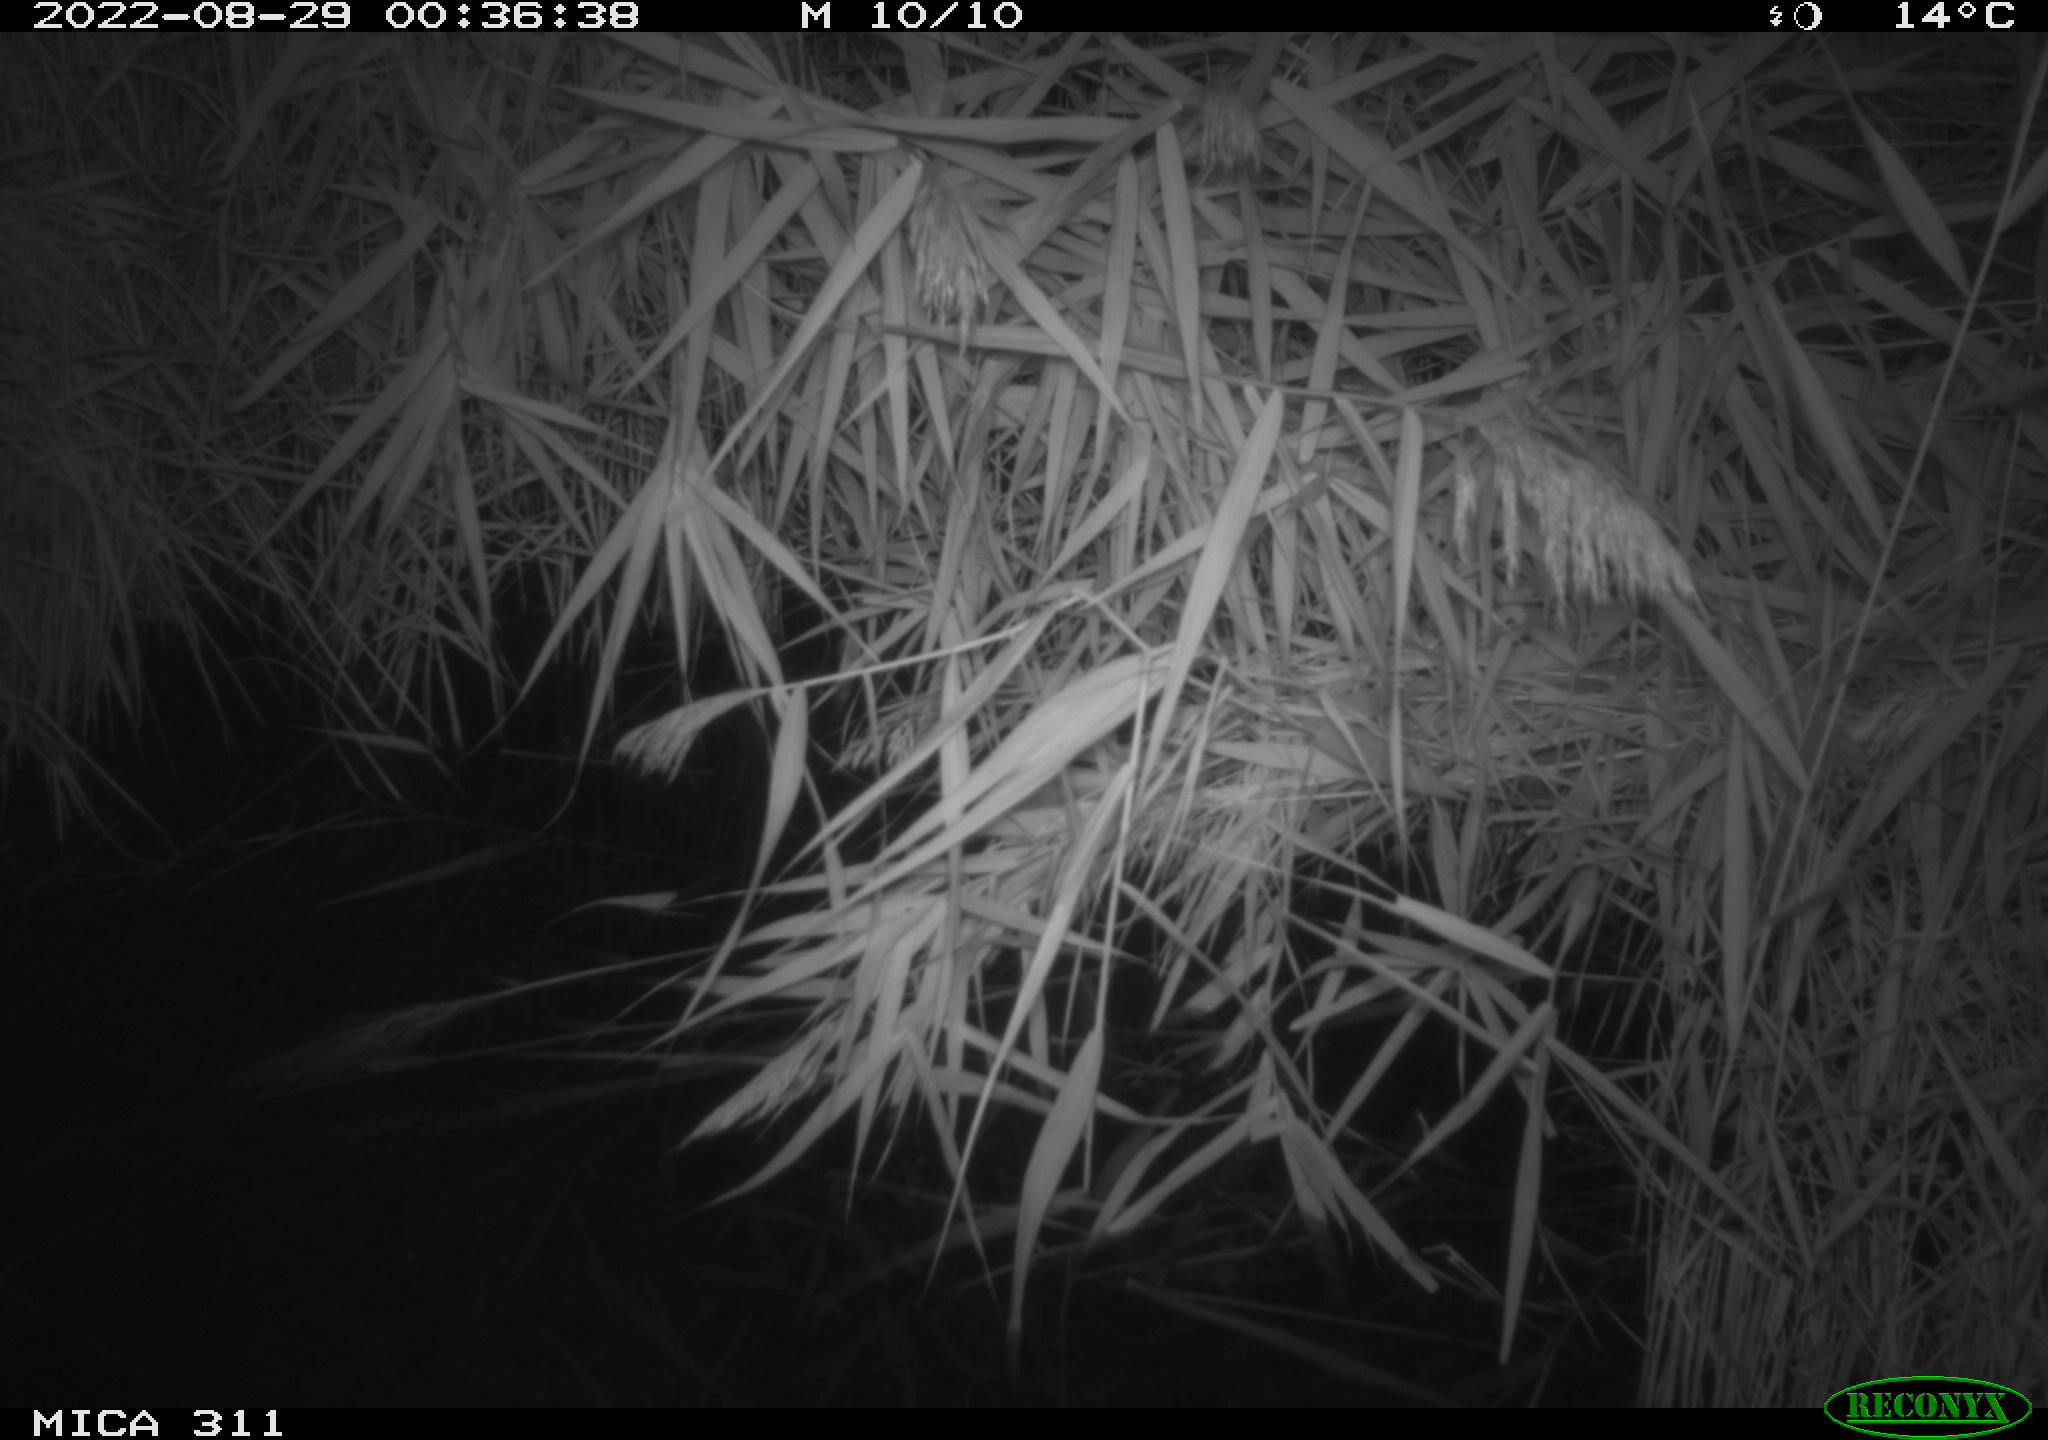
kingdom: Animalia
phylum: Chordata
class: Mammalia
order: Rodentia
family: Muridae
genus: Rattus
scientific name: Rattus norvegicus
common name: Brown rat
